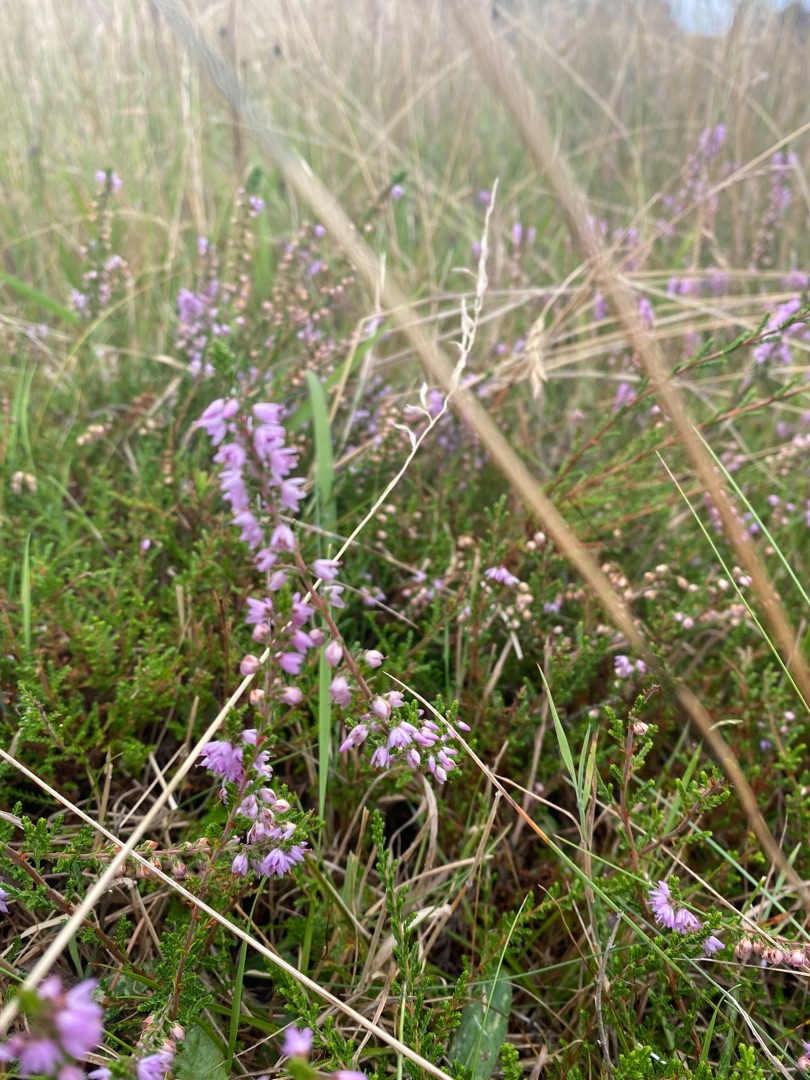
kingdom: Plantae
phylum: Tracheophyta
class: Magnoliopsida
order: Ericales
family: Ericaceae
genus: Calluna
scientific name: Calluna vulgaris
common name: Hedelyng
